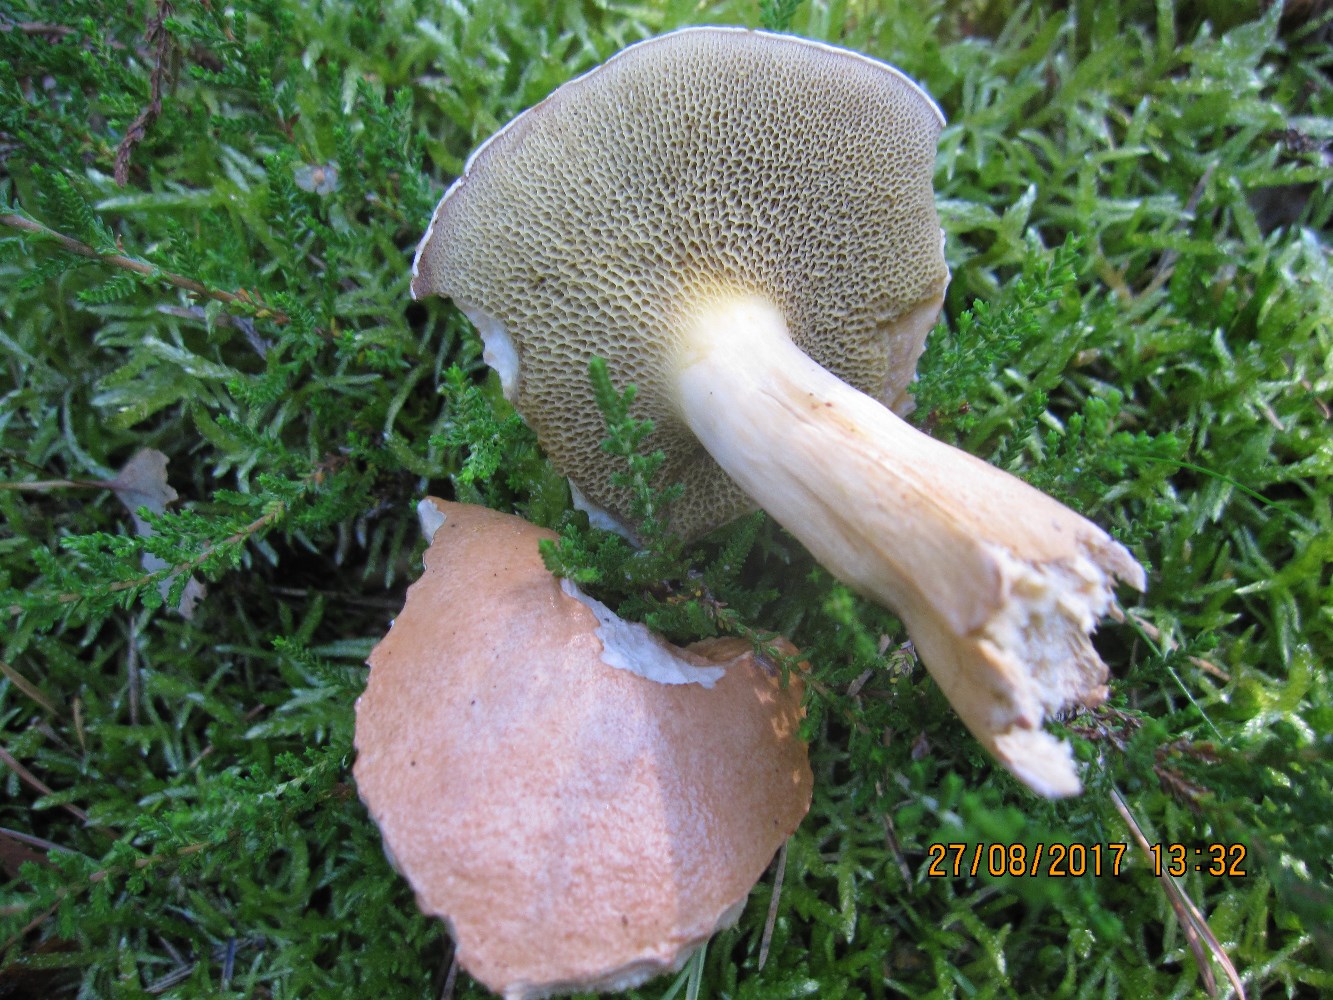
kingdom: Fungi
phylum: Basidiomycota
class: Agaricomycetes
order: Boletales
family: Suillaceae
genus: Suillus
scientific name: Suillus bovinus
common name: grovporet slimrørhat
